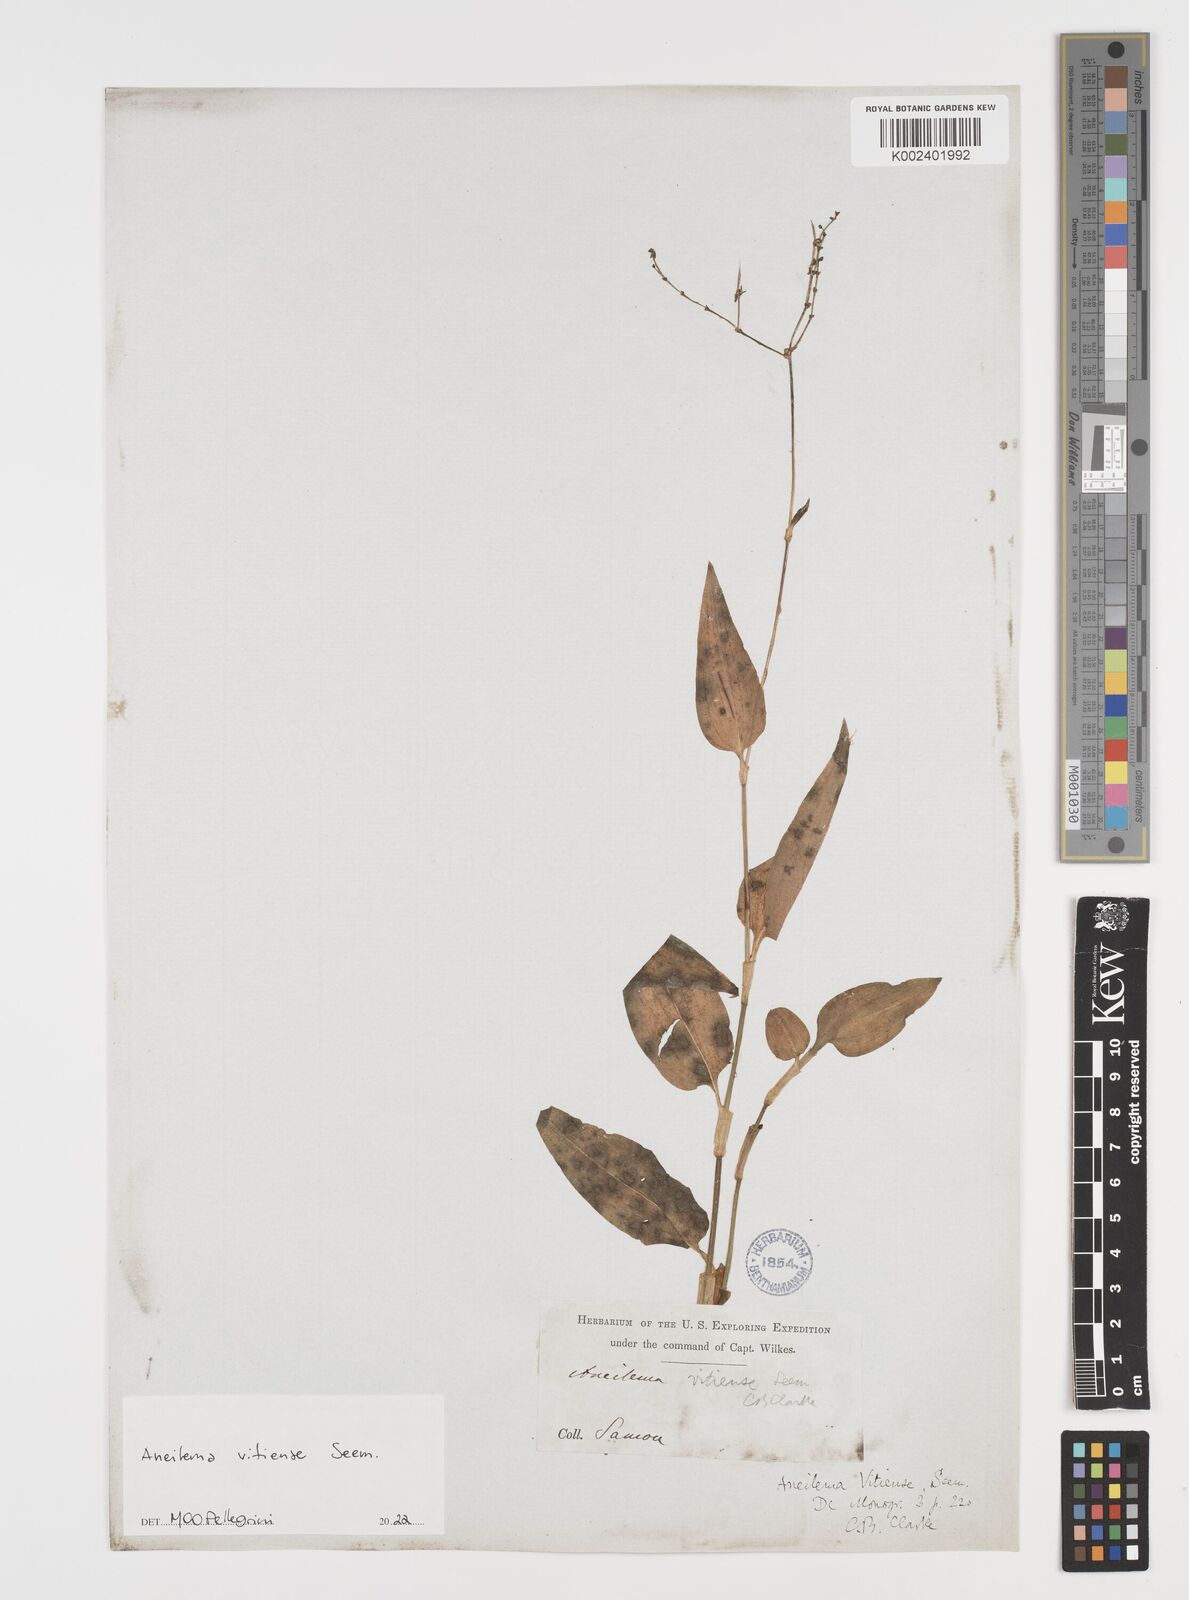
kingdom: Plantae
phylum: Tracheophyta
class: Liliopsida
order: Commelinales
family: Commelinaceae
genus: Rhopalephora
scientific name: Rhopalephora vitiensis
